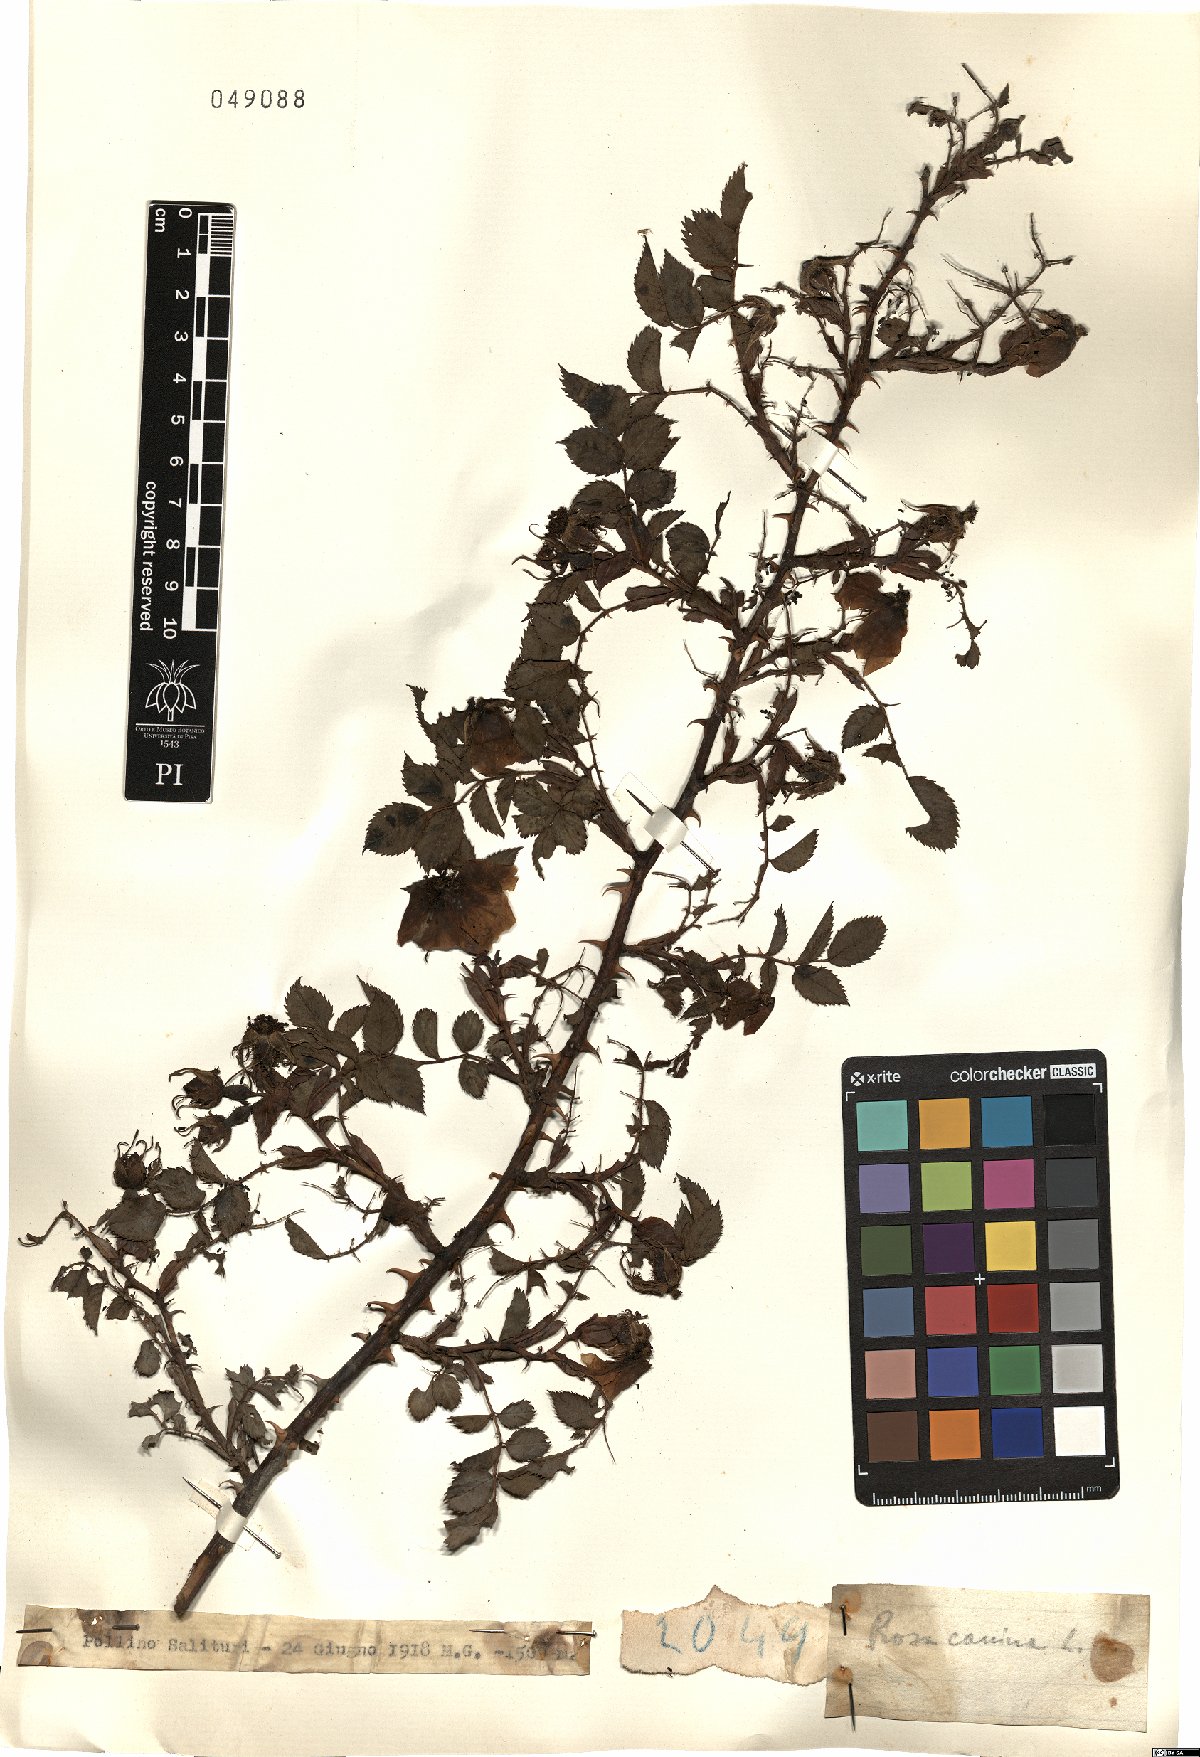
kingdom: Plantae
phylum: Tracheophyta
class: Magnoliopsida
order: Rosales
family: Rosaceae
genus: Rosa
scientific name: Rosa canina
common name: Dog rose
